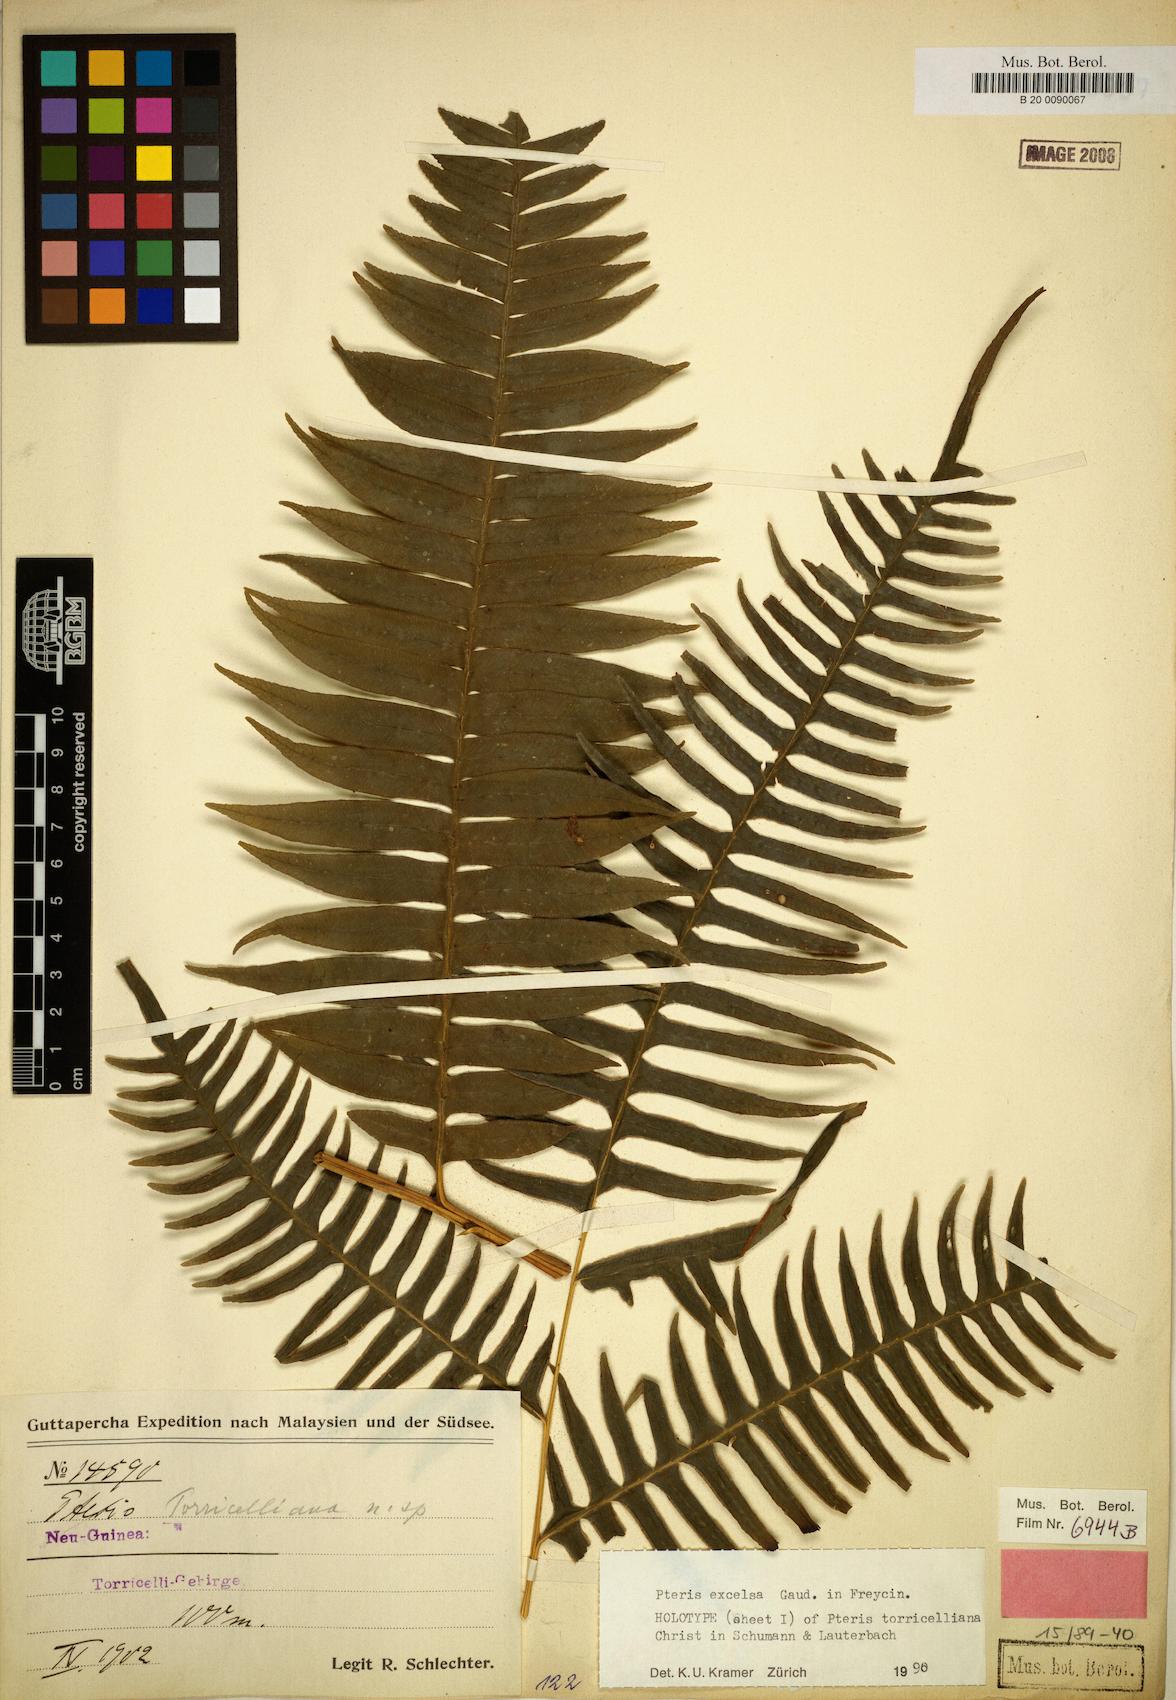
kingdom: Plantae
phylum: Tracheophyta
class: Polypodiopsida
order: Polypodiales
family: Pteridaceae
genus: Pteris
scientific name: Pteris terminalis
